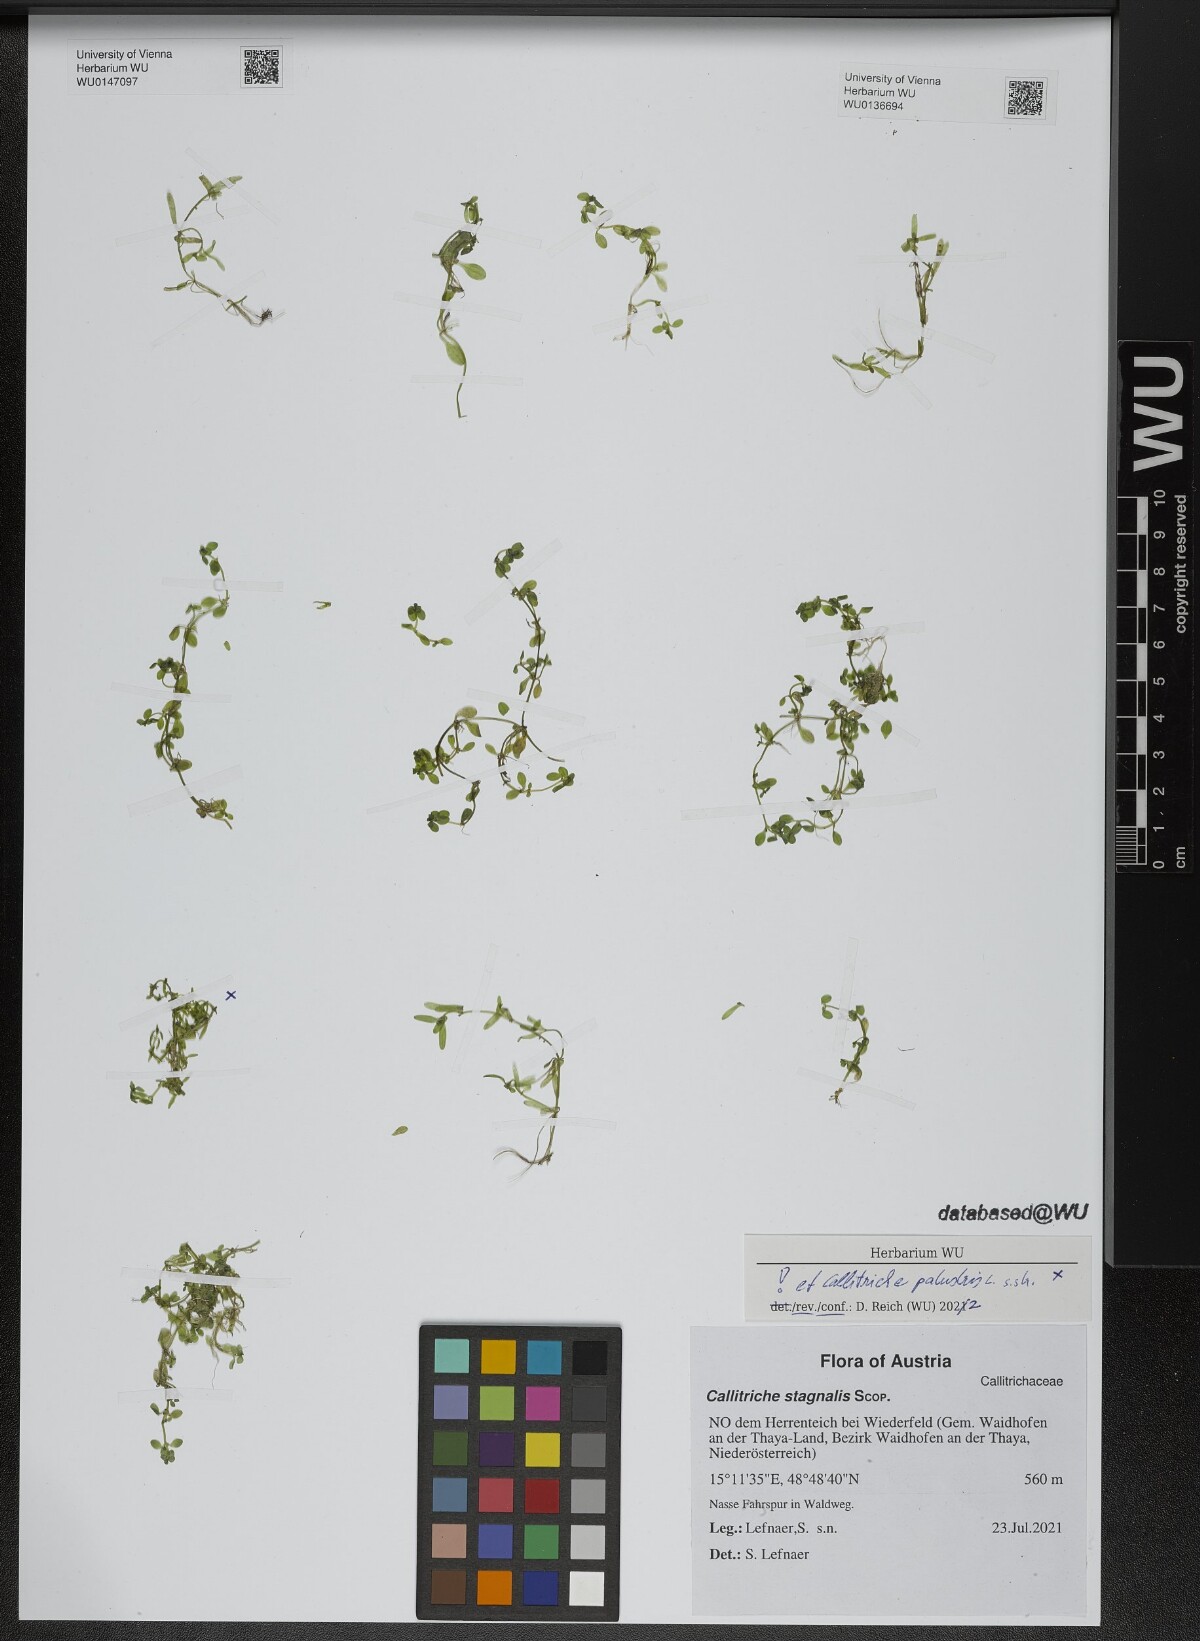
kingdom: Plantae
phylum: Tracheophyta
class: Magnoliopsida
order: Lamiales
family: Plantaginaceae
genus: Callitriche
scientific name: Callitriche palustris
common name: Spring water-starwort
